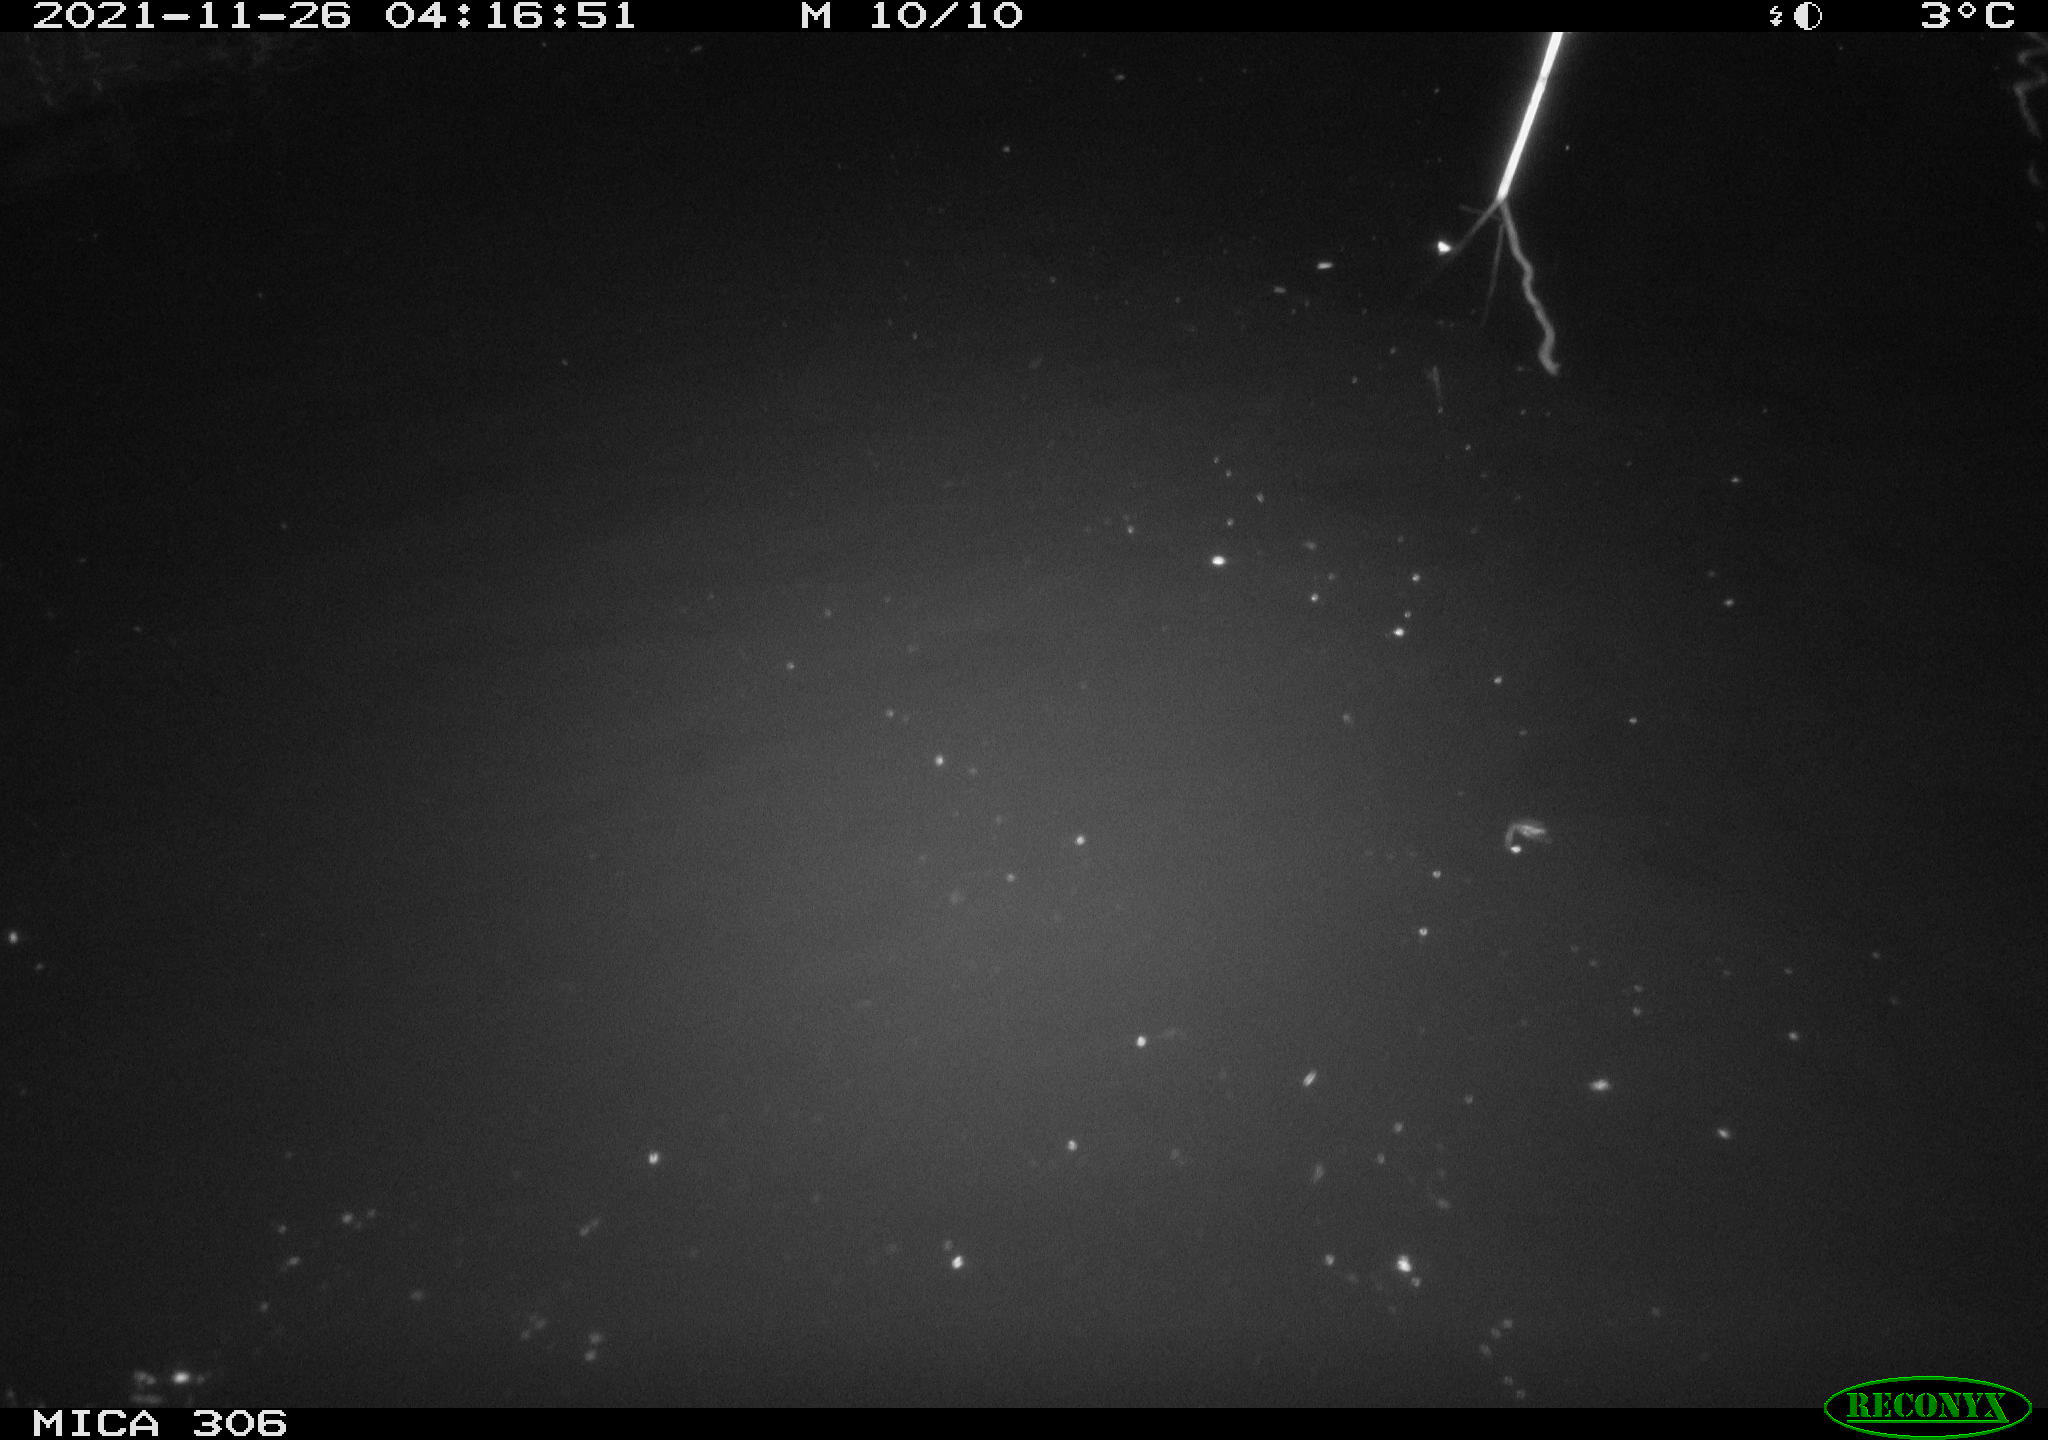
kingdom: Animalia
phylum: Chordata
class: Mammalia
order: Rodentia
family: Cricetidae
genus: Ondatra
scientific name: Ondatra zibethicus
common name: Muskrat
